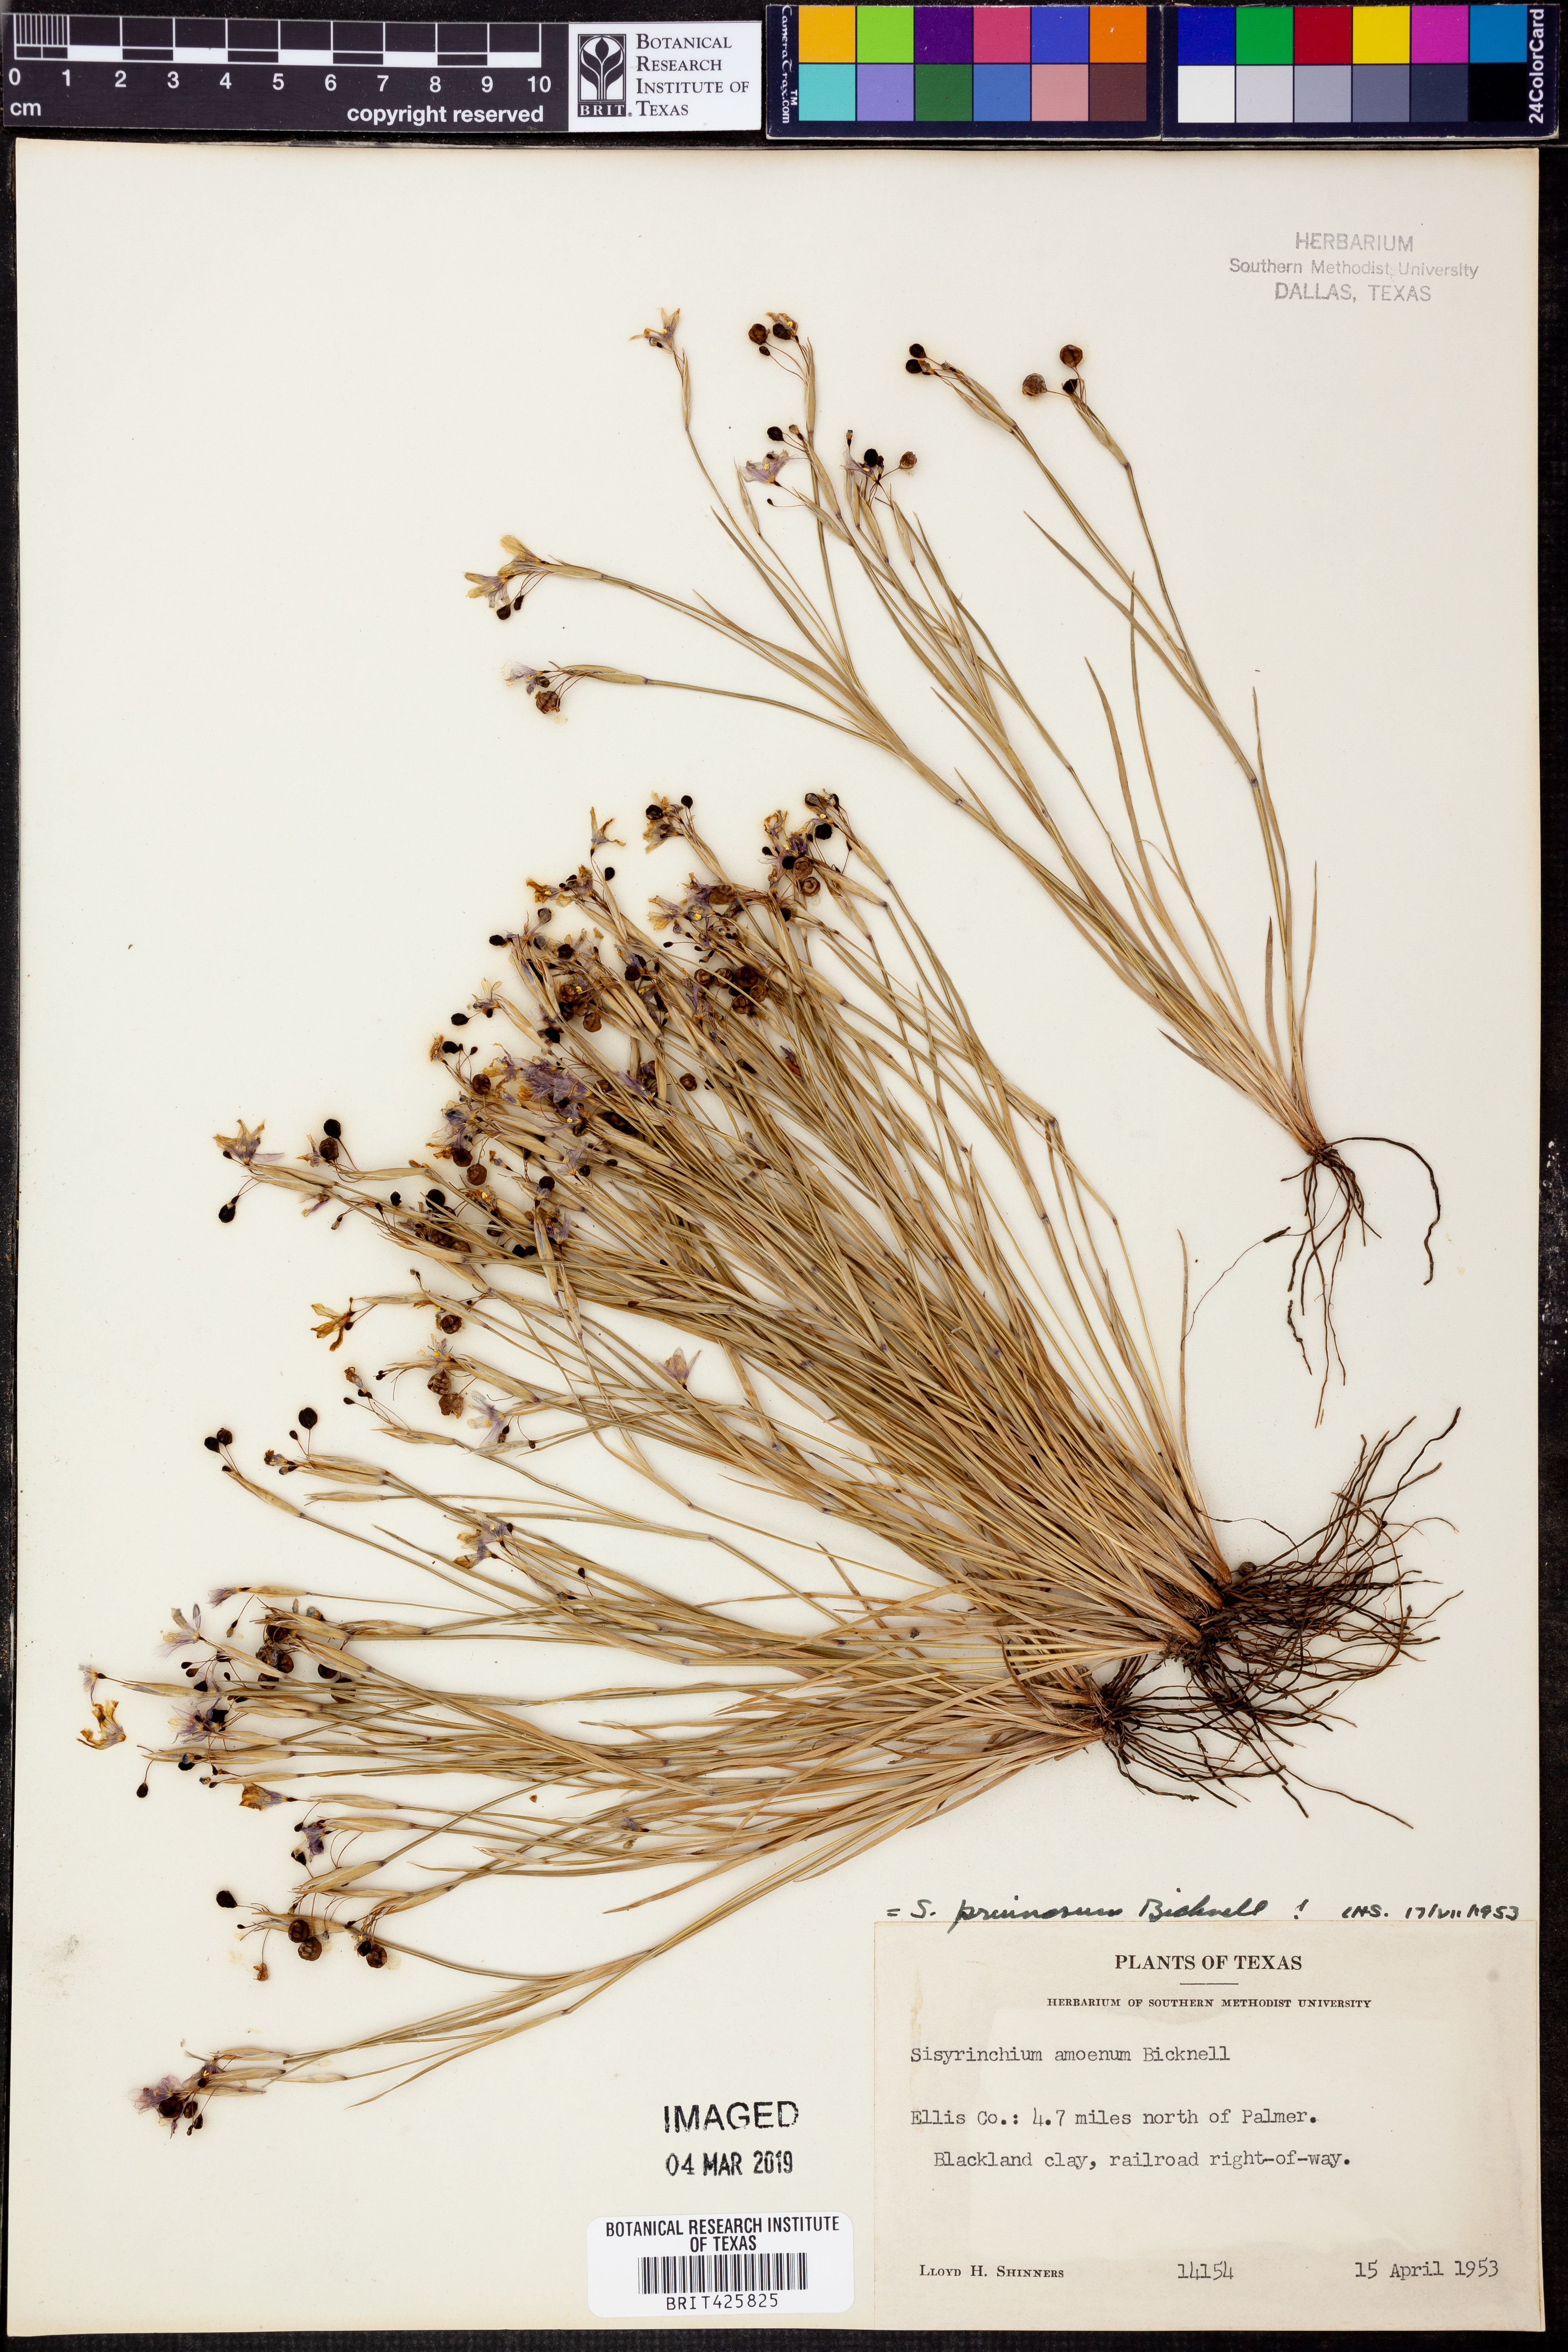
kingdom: Plantae
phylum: Tracheophyta
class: Liliopsida
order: Asparagales
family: Iridaceae
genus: Sisyrinchium
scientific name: Sisyrinchium pruinosum
